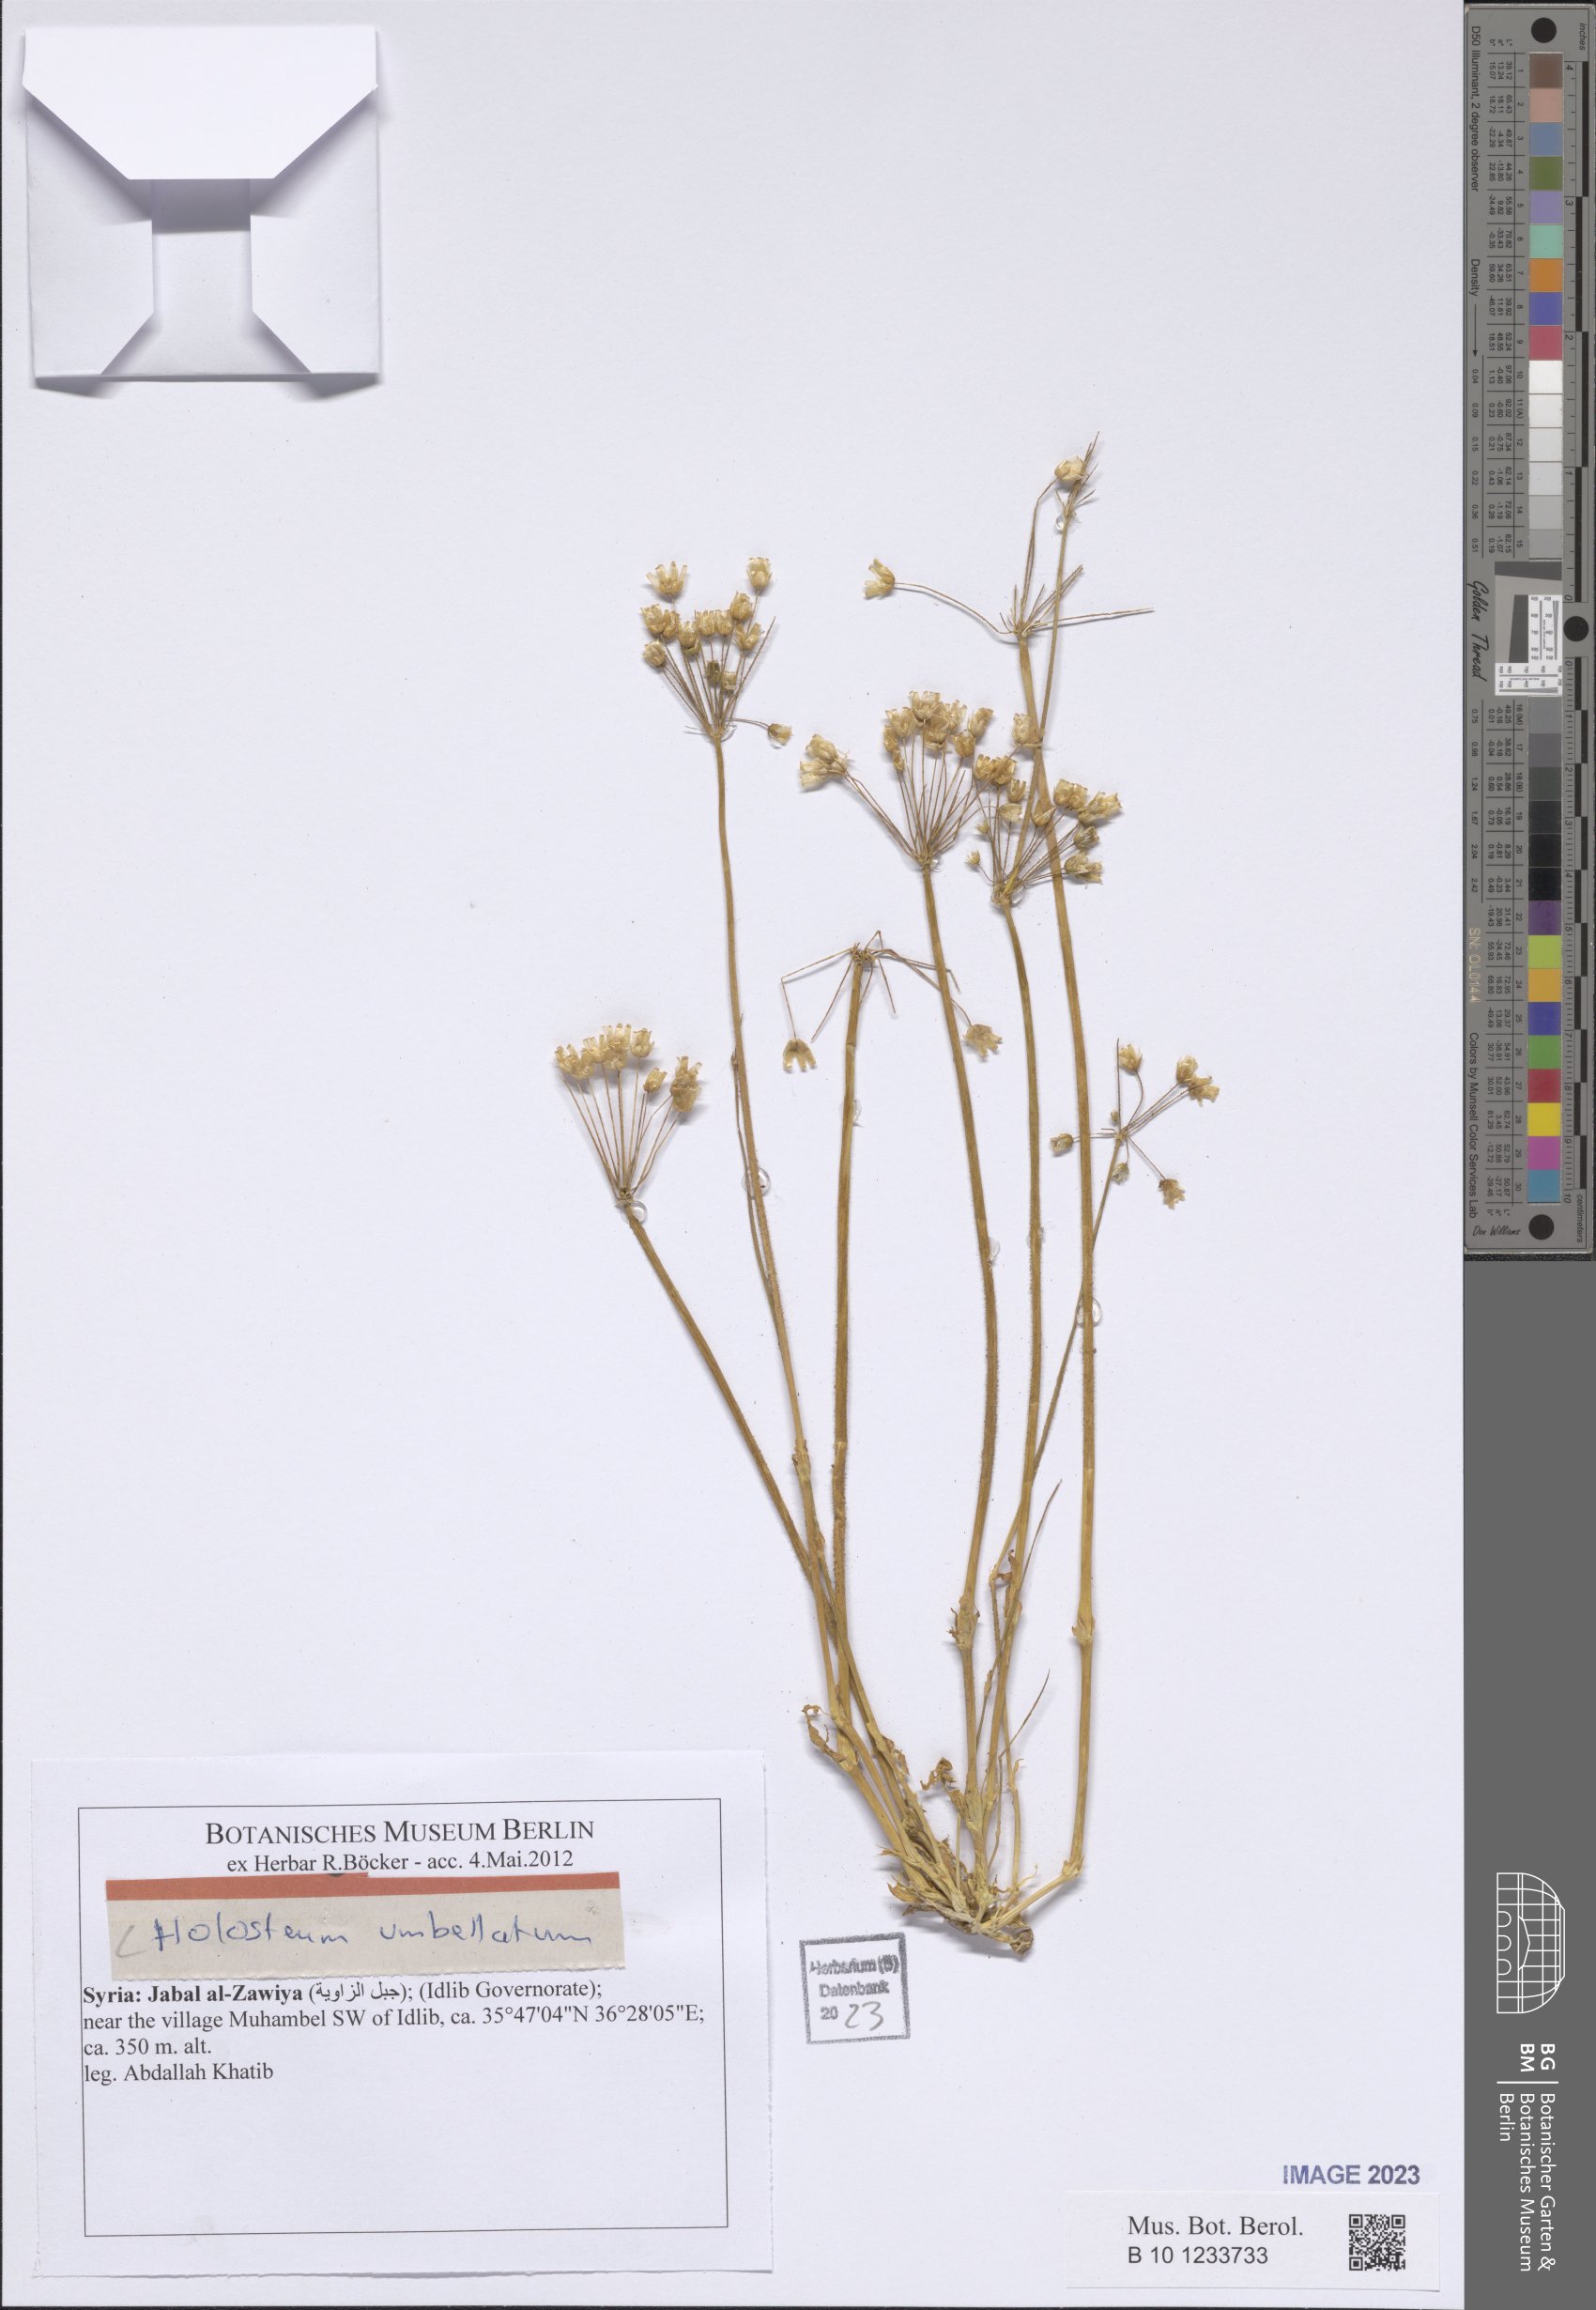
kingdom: Plantae
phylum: Tracheophyta
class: Magnoliopsida
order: Caryophyllales
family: Caryophyllaceae
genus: Holosteum
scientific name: Holosteum umbellatum
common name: Jagged chickweed
